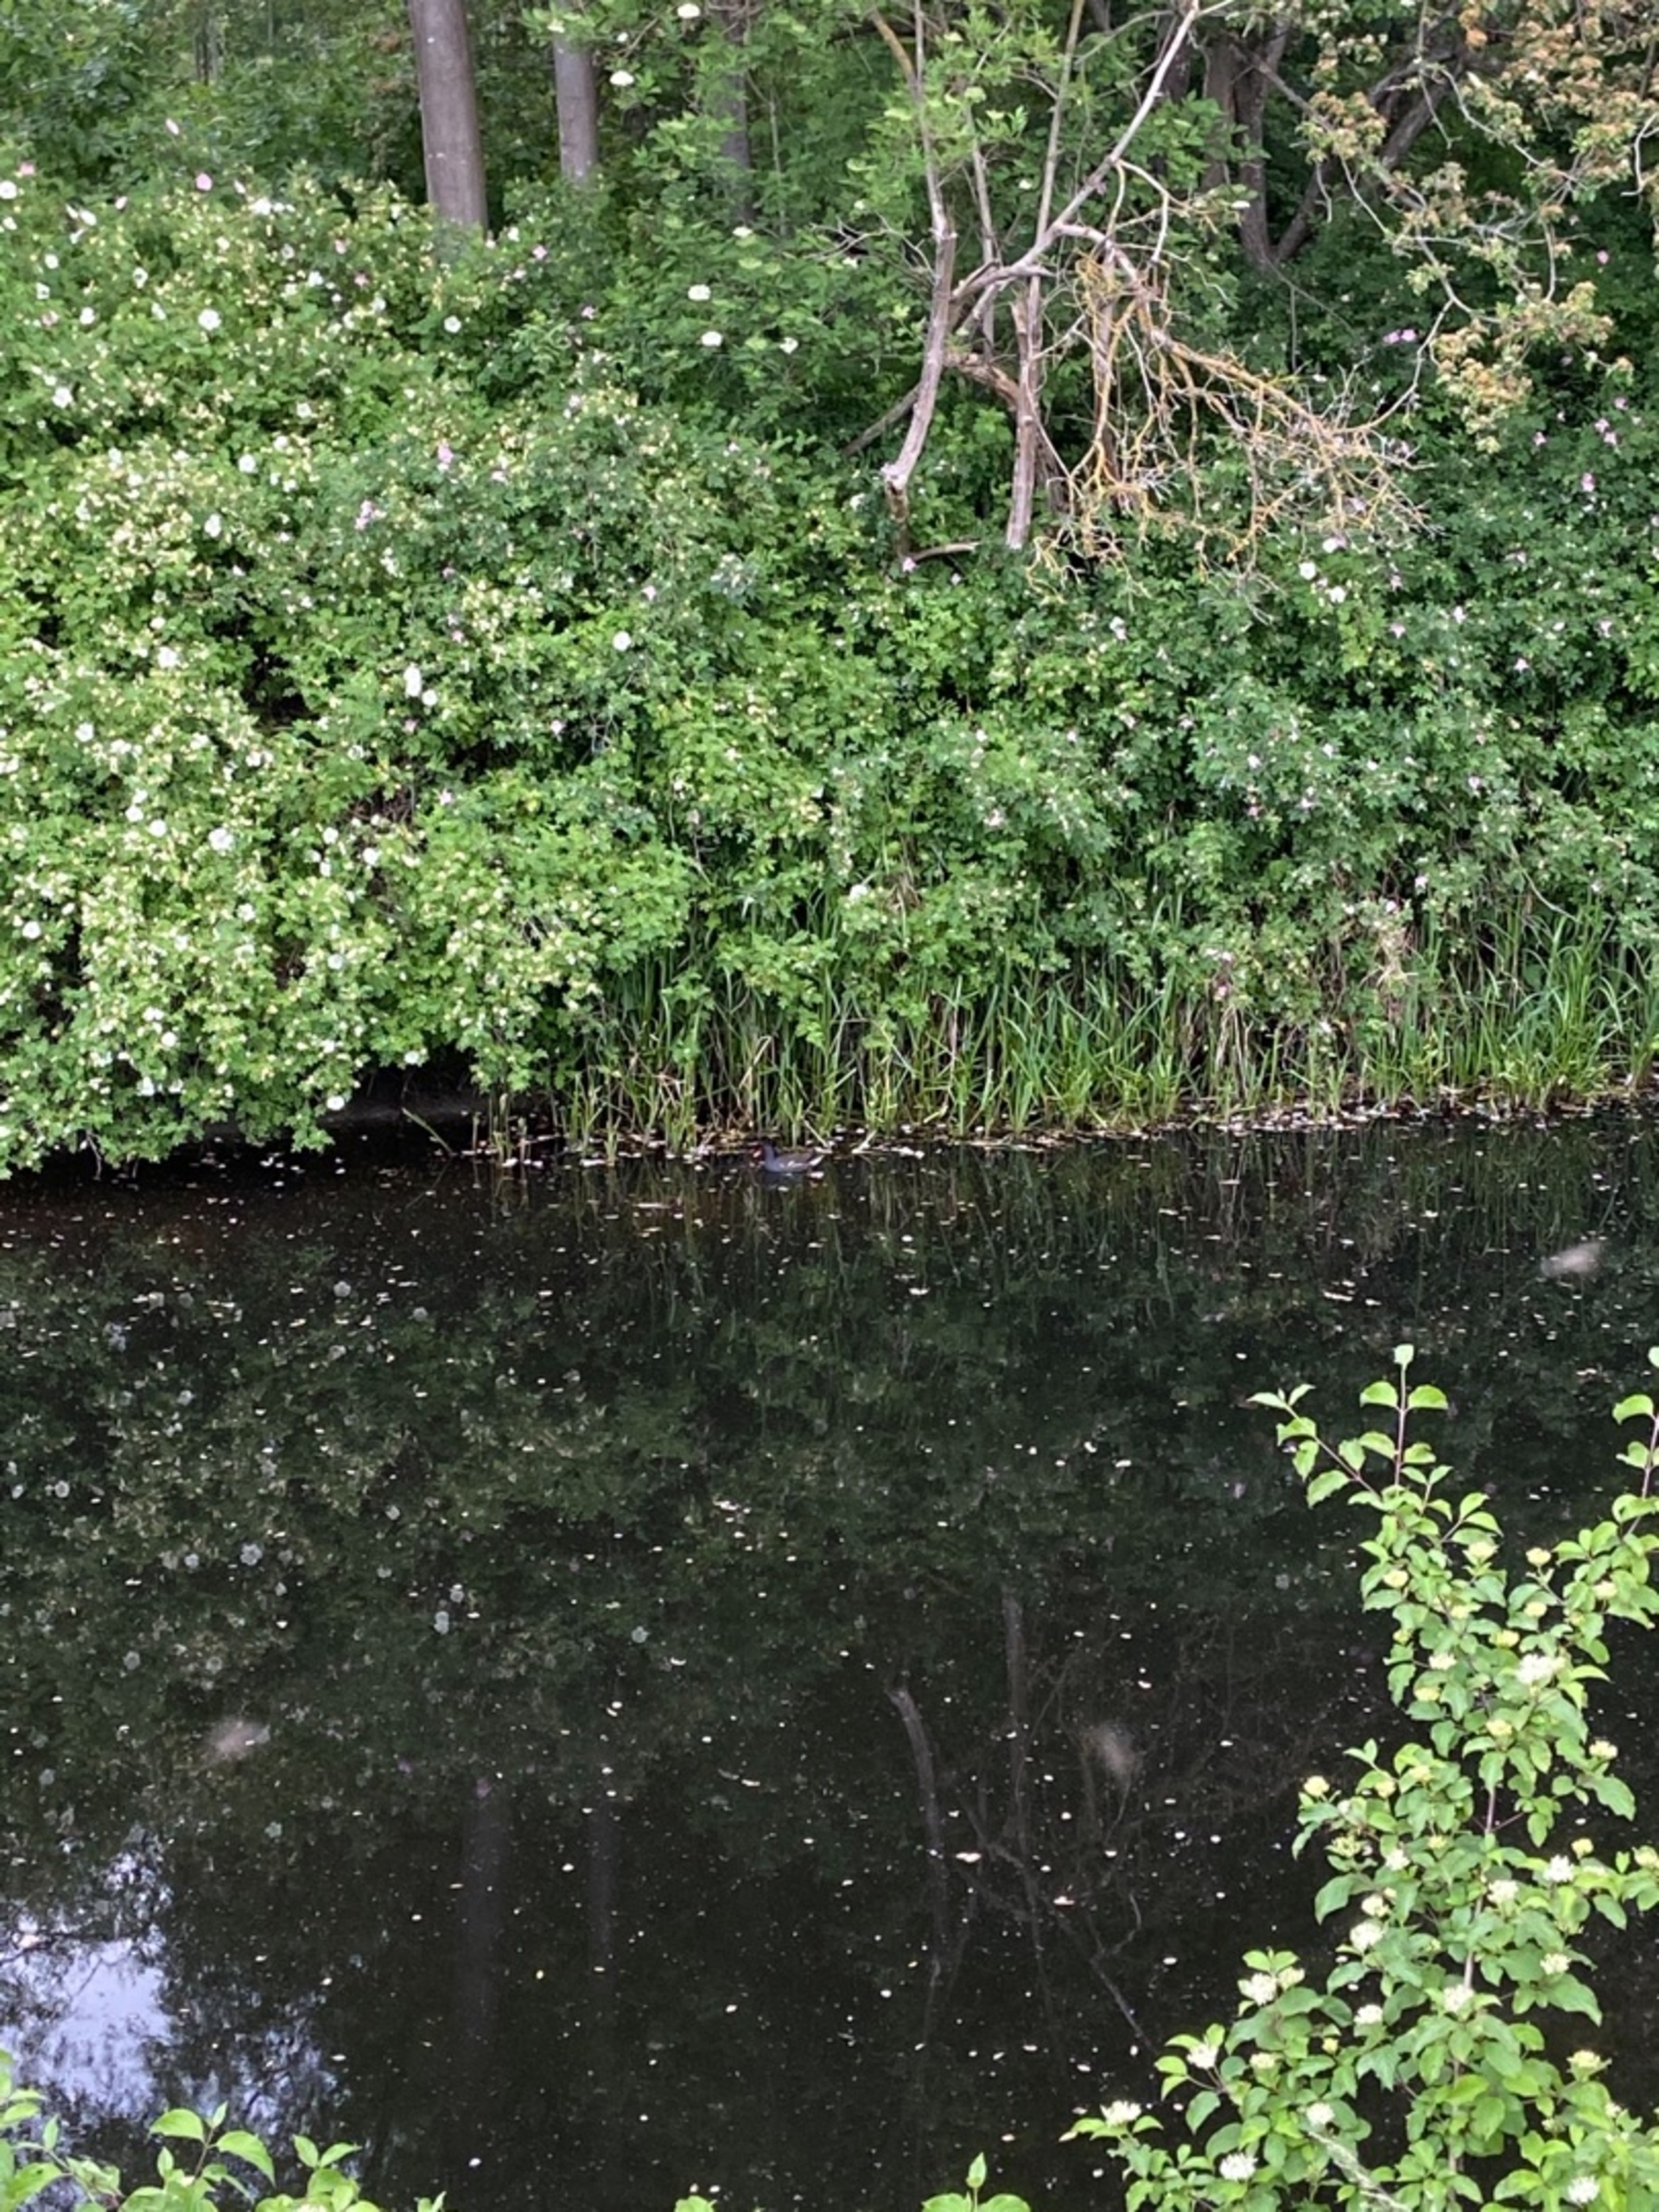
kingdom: Animalia
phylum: Chordata
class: Aves
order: Gruiformes
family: Rallidae
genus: Gallinula
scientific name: Gallinula chloropus
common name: Grønbenet rørhøne
